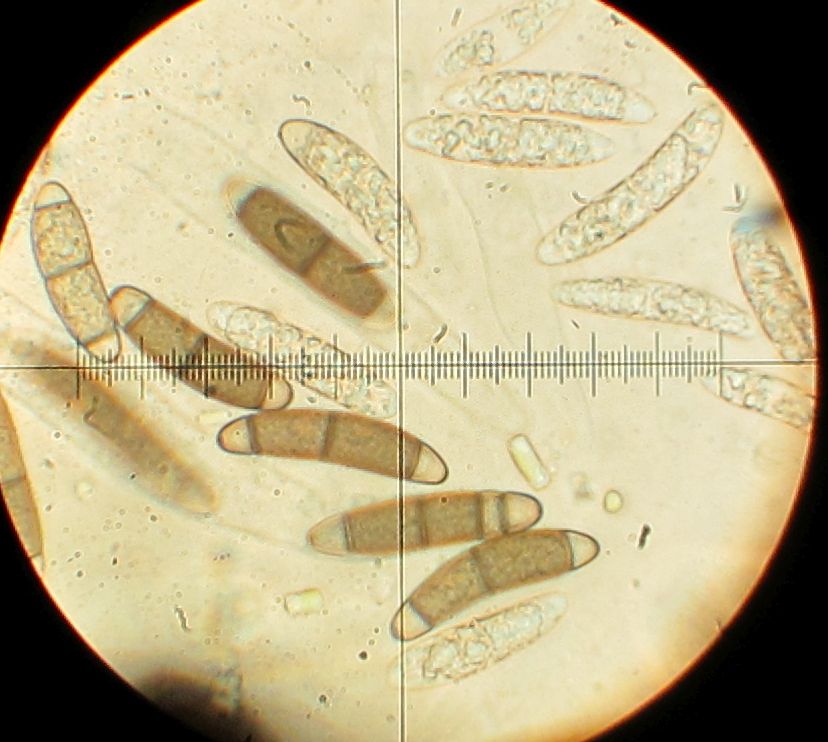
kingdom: Fungi
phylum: Ascomycota
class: Sordariomycetes
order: Coronophorales
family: Chaetosphaerellaceae
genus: Chaetosphaerella
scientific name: Chaetosphaerella phaeostroma
